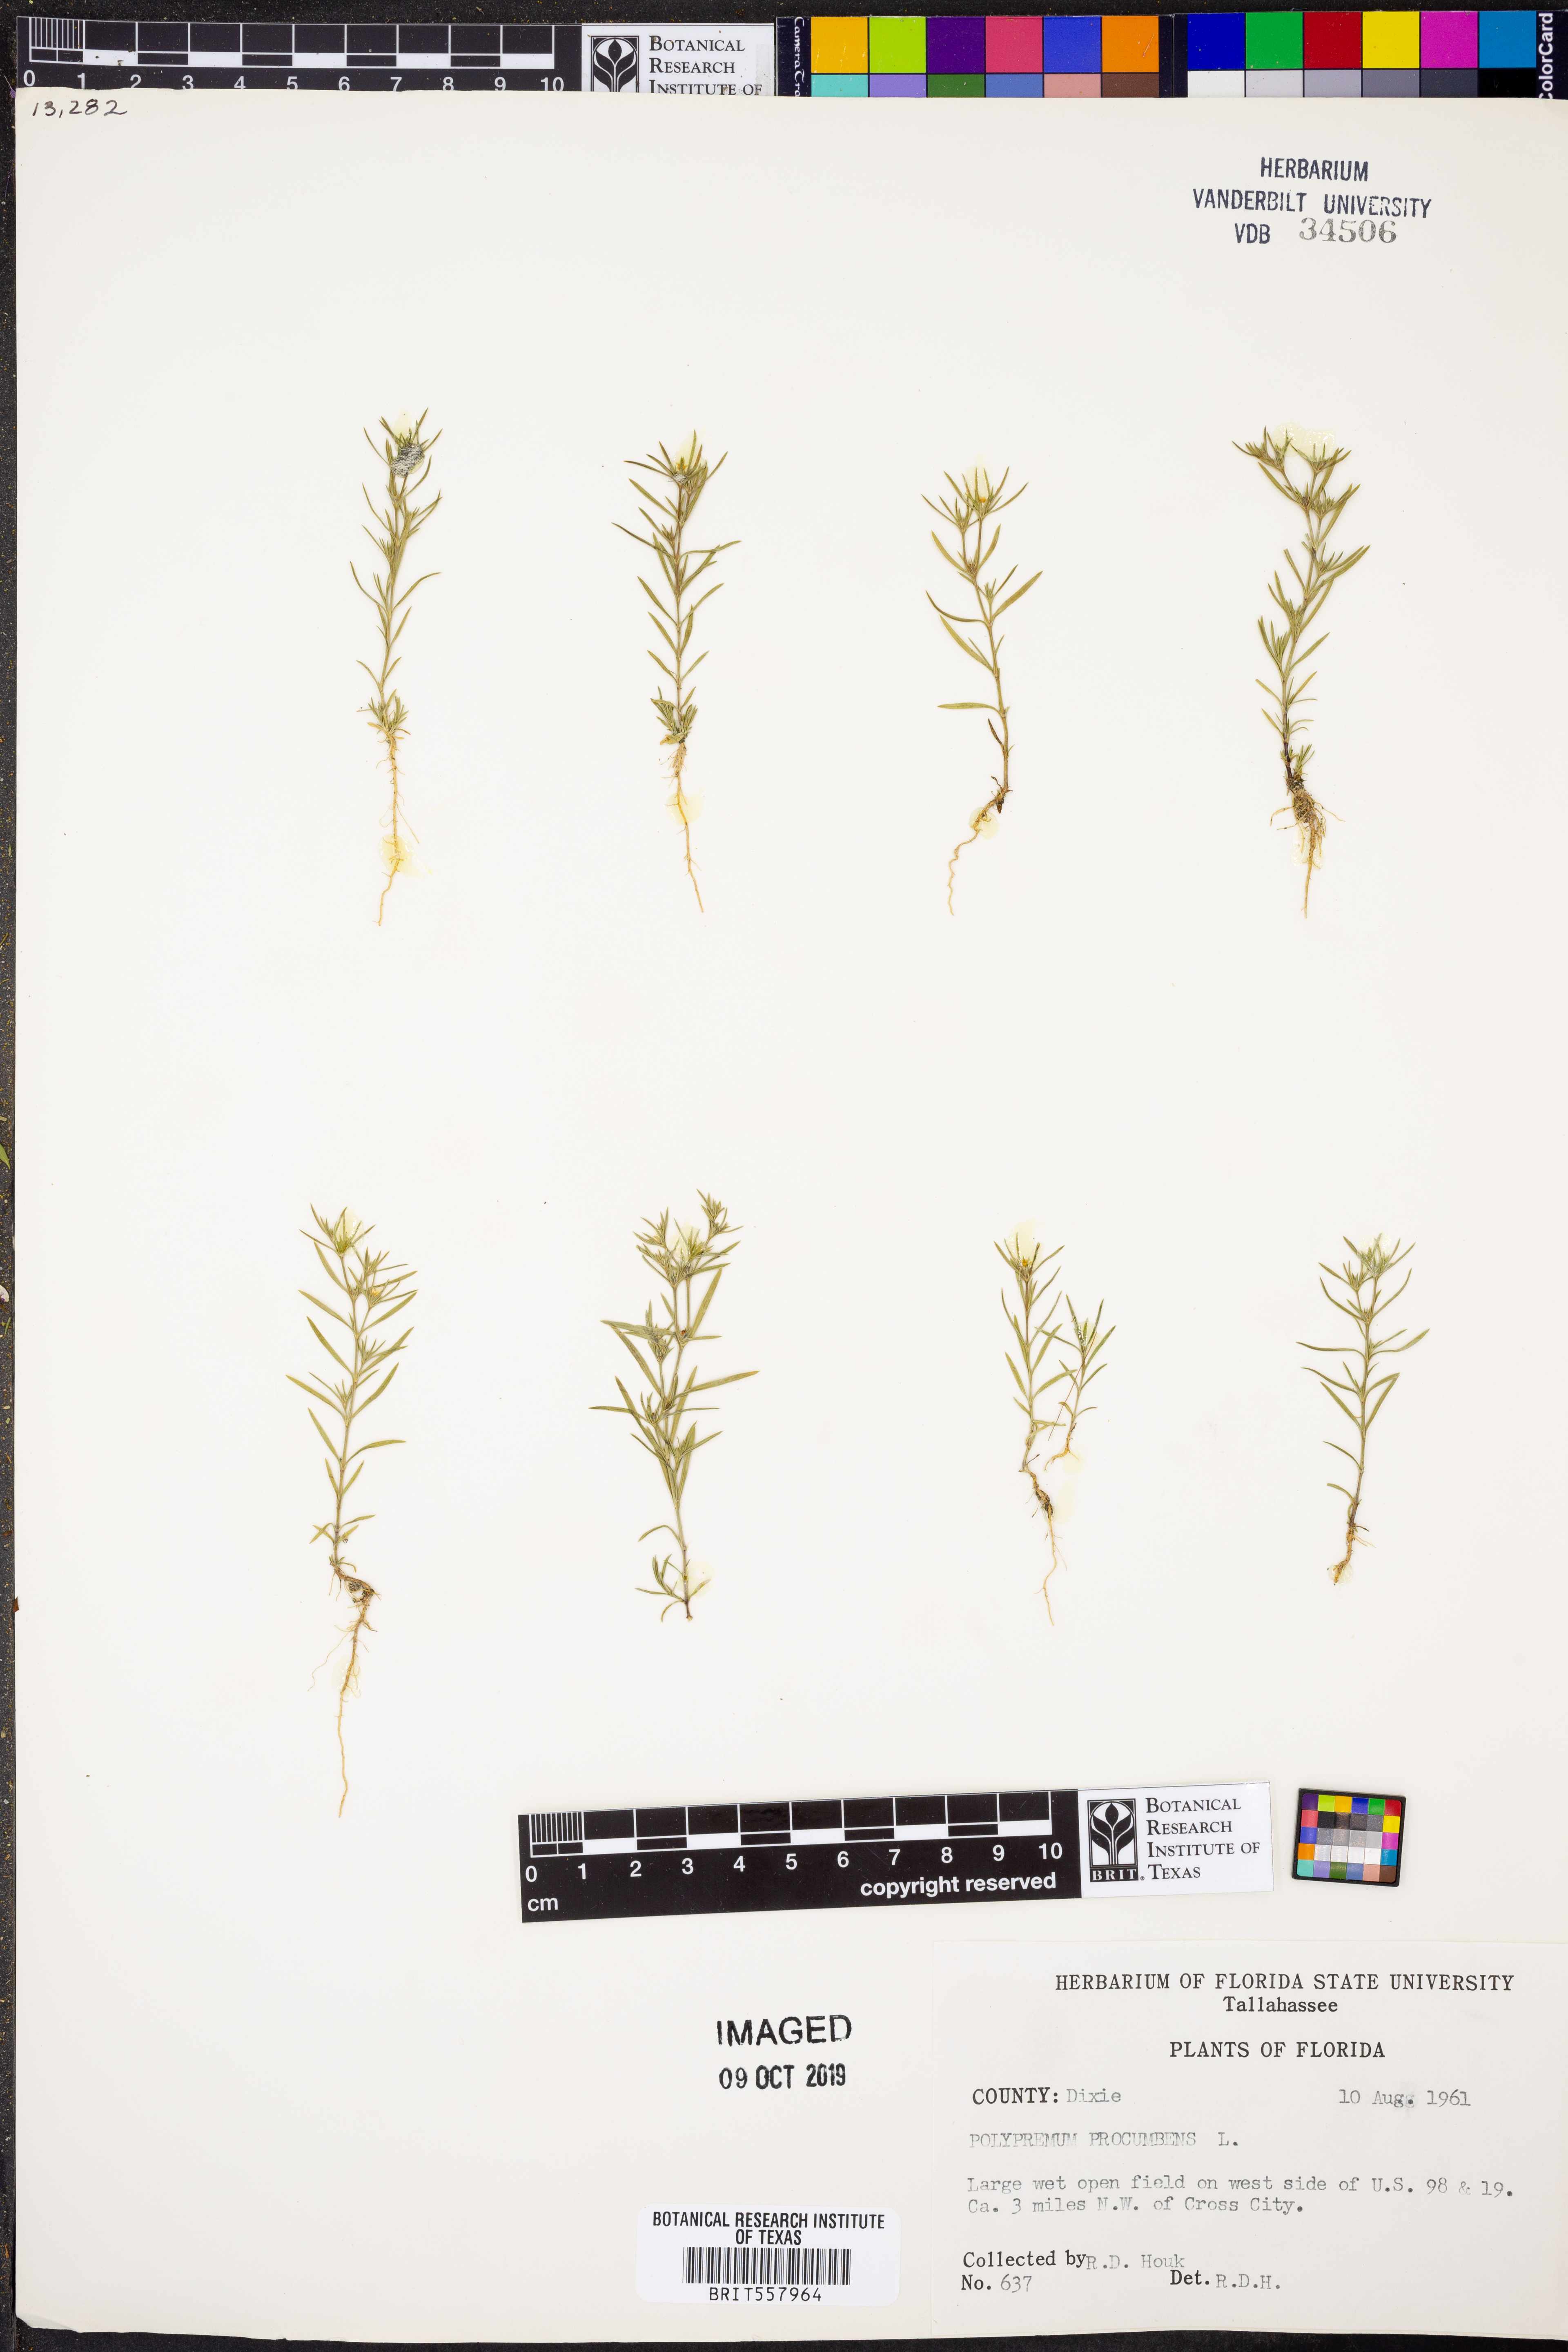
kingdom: Plantae
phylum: Tracheophyta
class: Magnoliopsida
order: Lamiales
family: Tetrachondraceae
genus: Polypremum
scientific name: Polypremum procumbens
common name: Juniper-leaf
